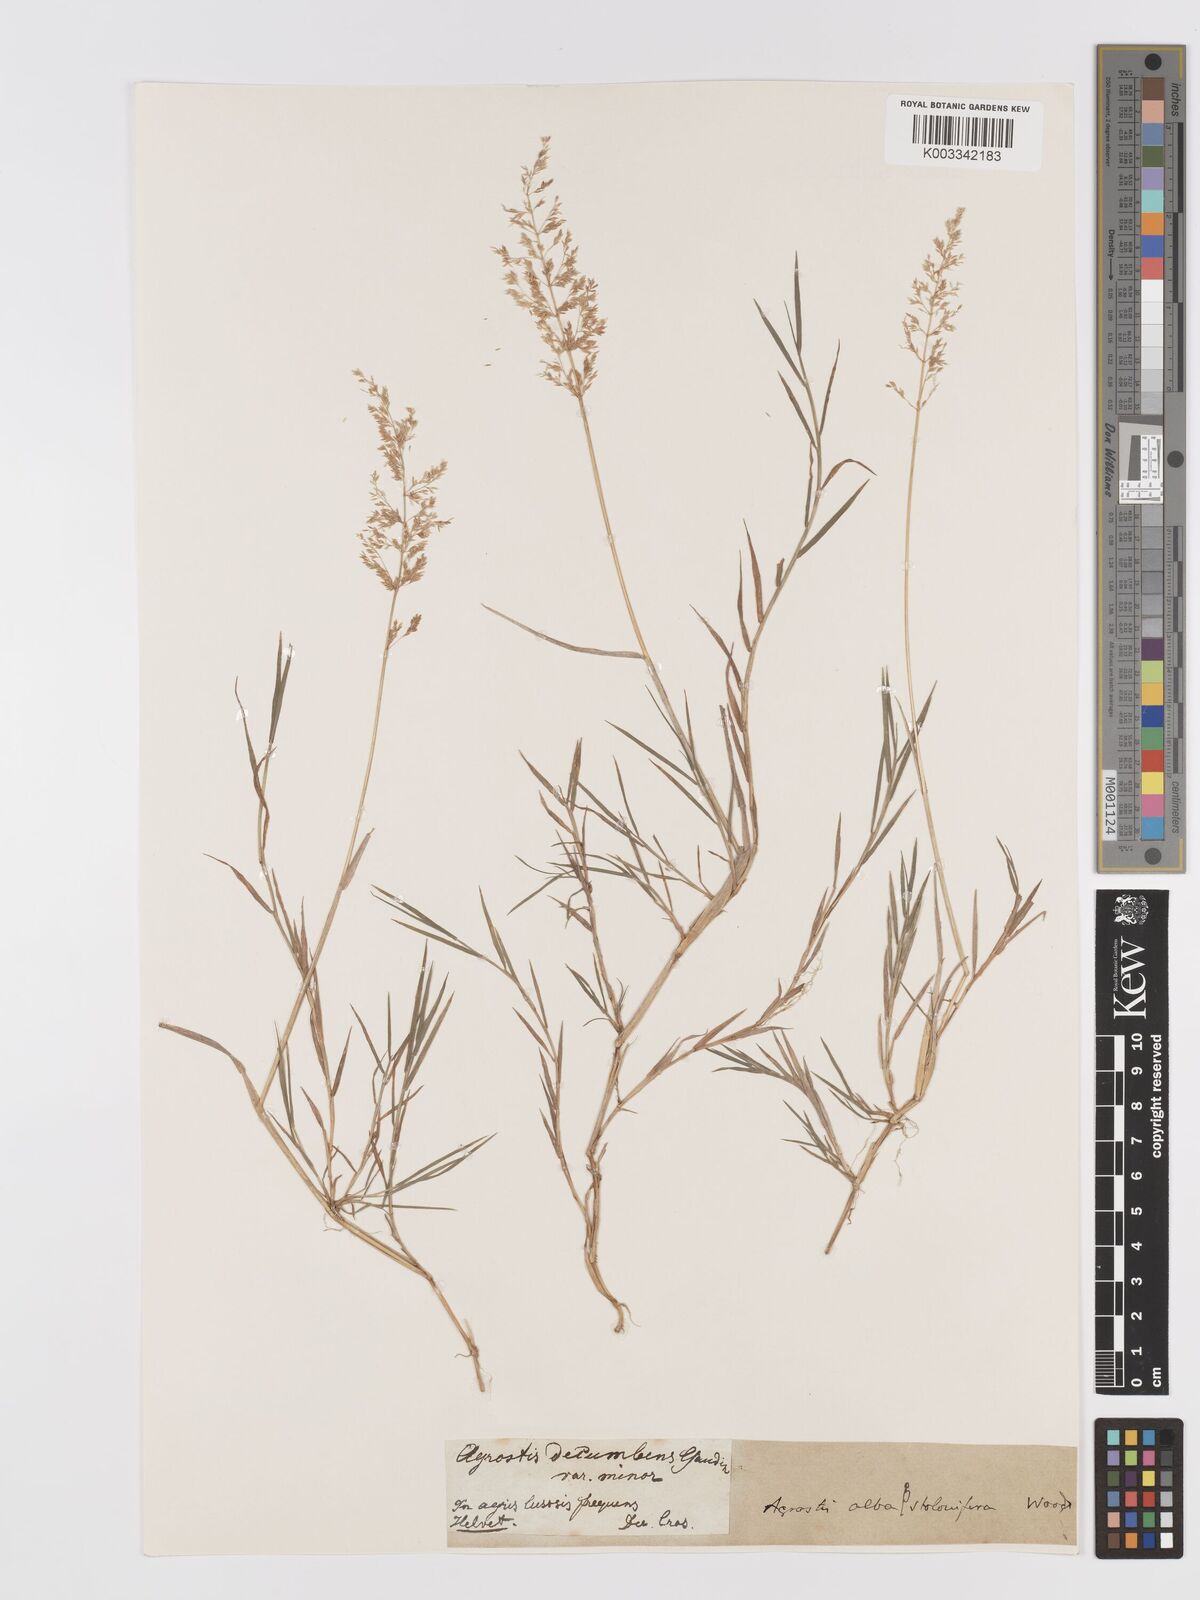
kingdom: Plantae
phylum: Tracheophyta
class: Liliopsida
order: Poales
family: Poaceae
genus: Agrostis
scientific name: Agrostis stolonifera
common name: Creeping bentgrass
